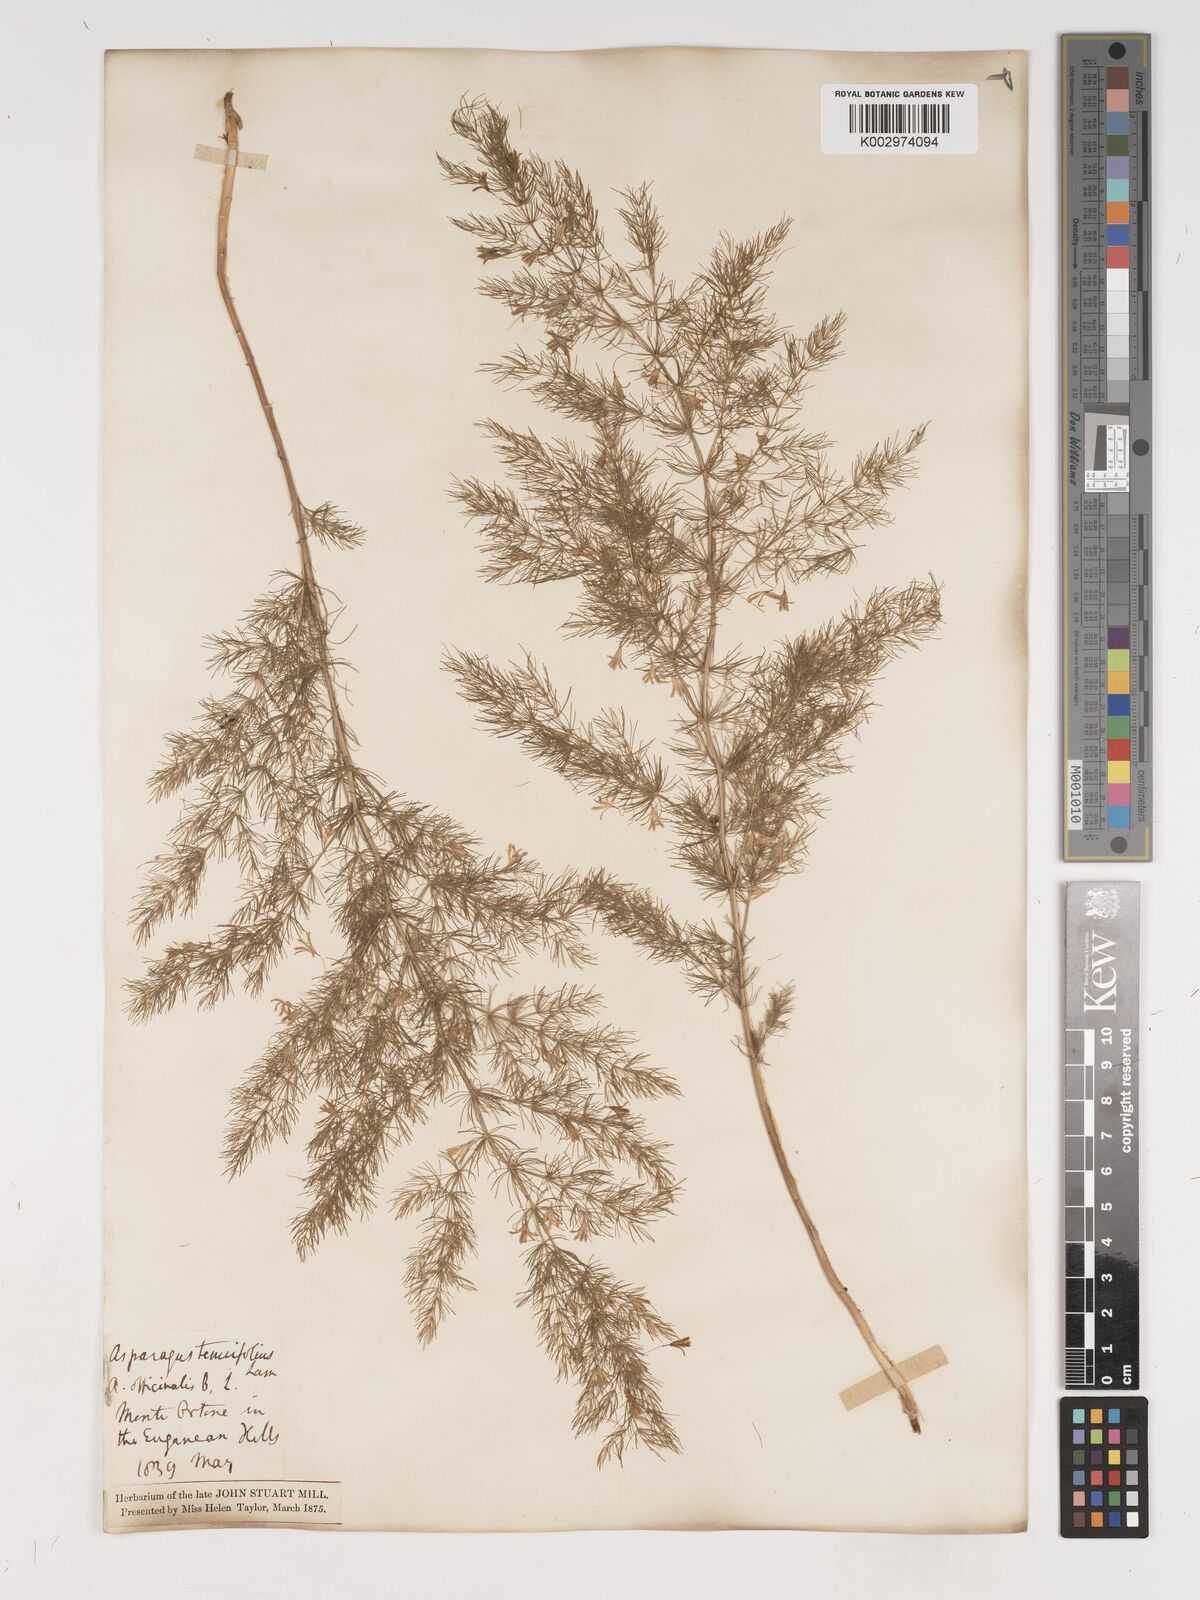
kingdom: Plantae
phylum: Tracheophyta
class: Liliopsida
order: Asparagales
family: Asparagaceae
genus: Asparagus
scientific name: Asparagus tenuifolius
